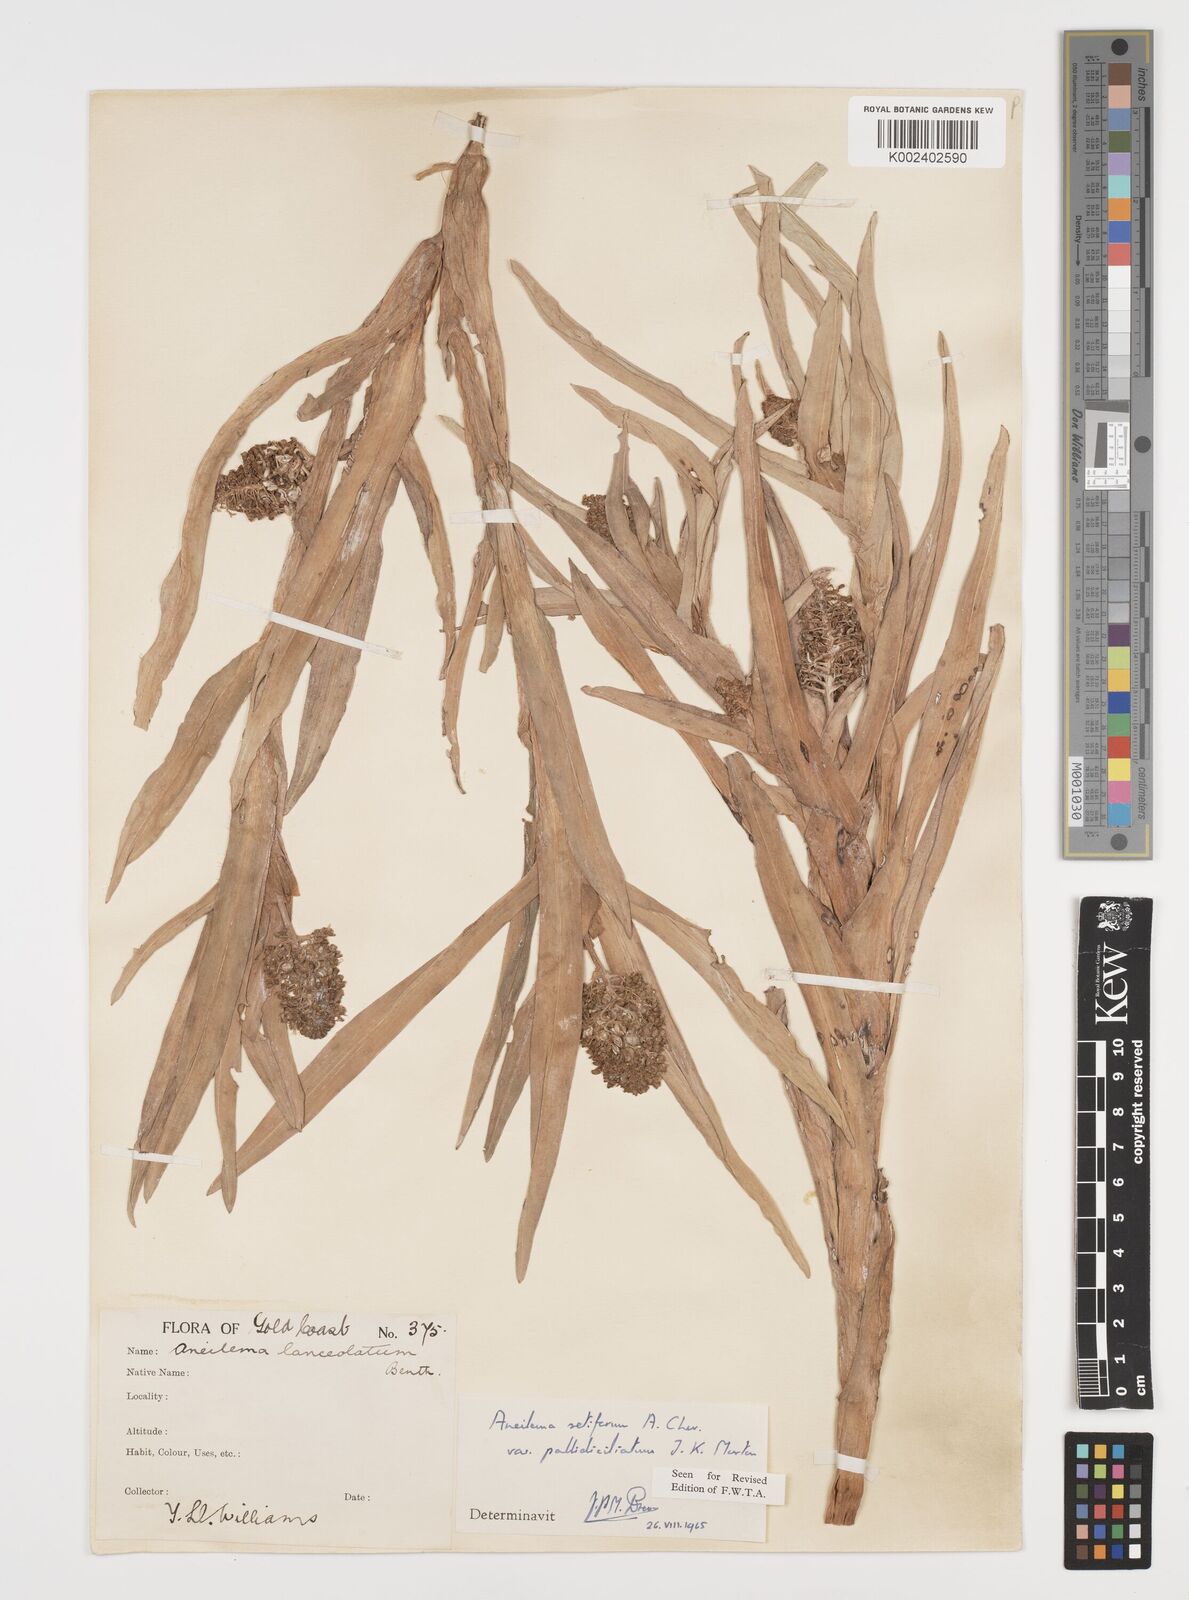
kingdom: Plantae
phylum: Tracheophyta
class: Liliopsida
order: Commelinales
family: Commelinaceae
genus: Aneilema
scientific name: Aneilema setiferum
